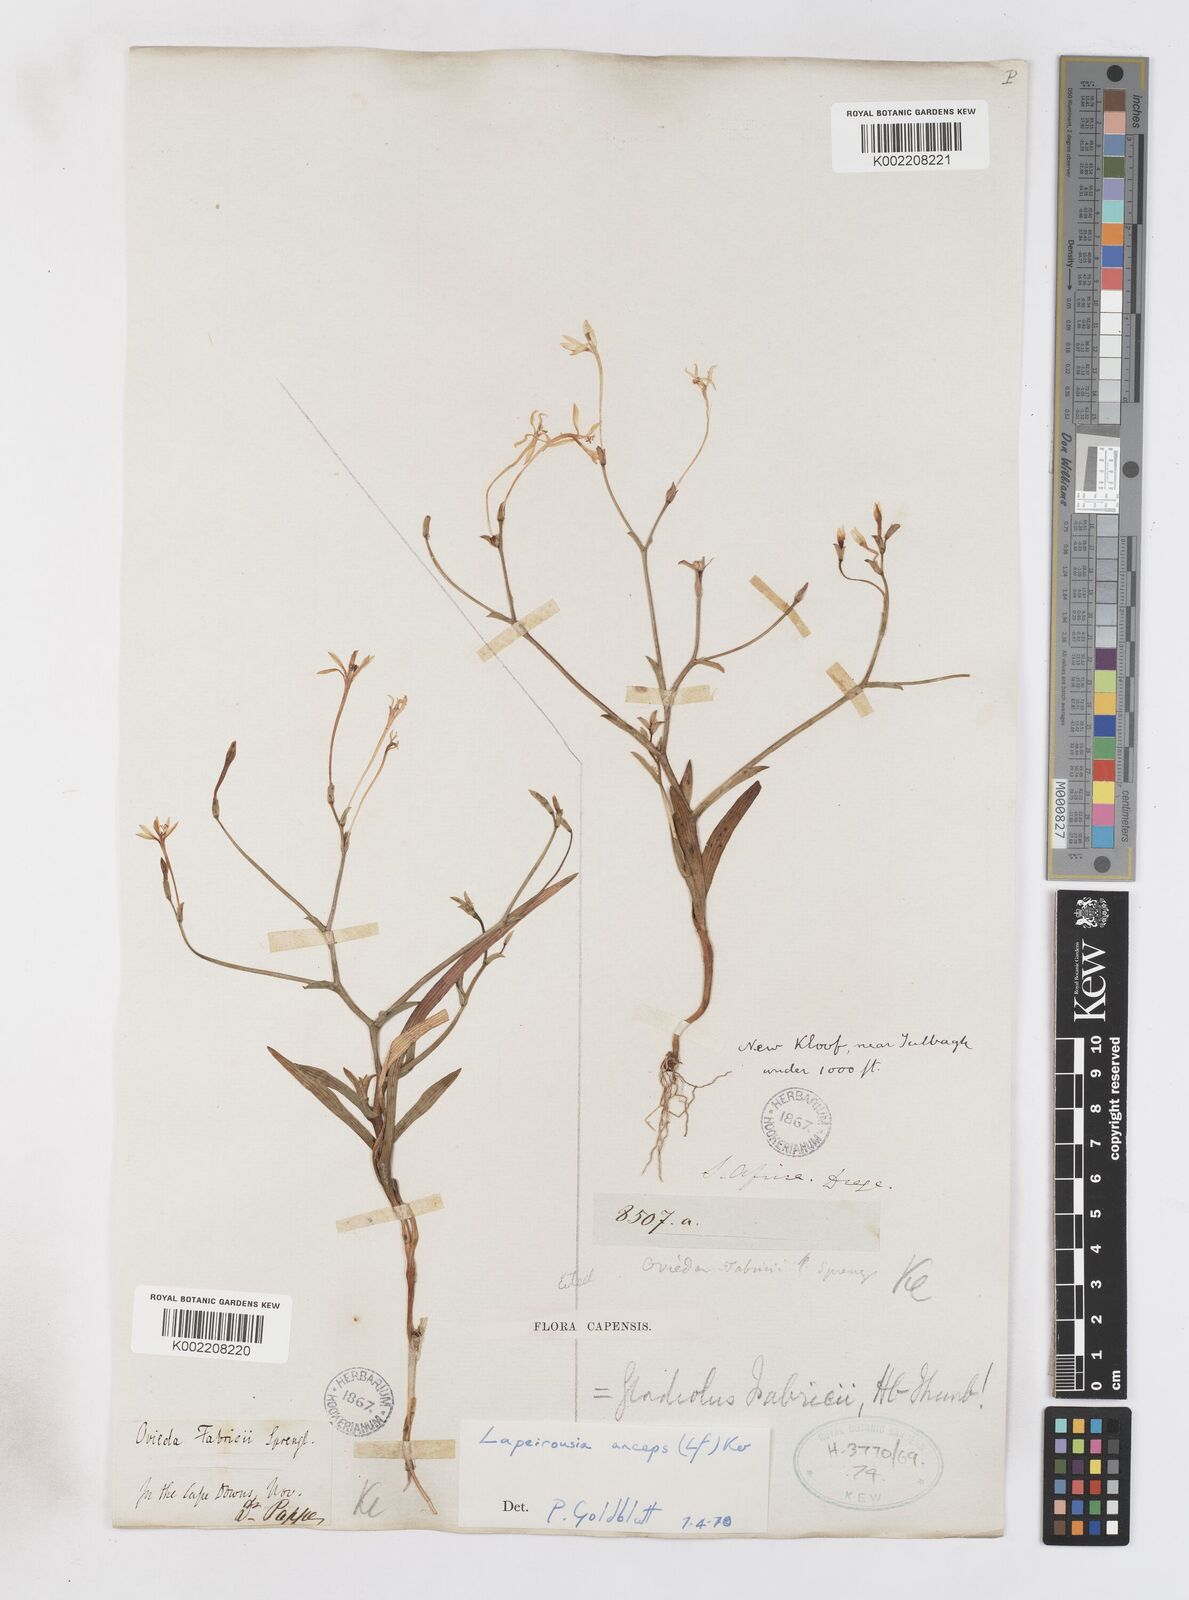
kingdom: Plantae
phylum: Tracheophyta
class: Liliopsida
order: Asparagales
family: Iridaceae
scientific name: Iridaceae
